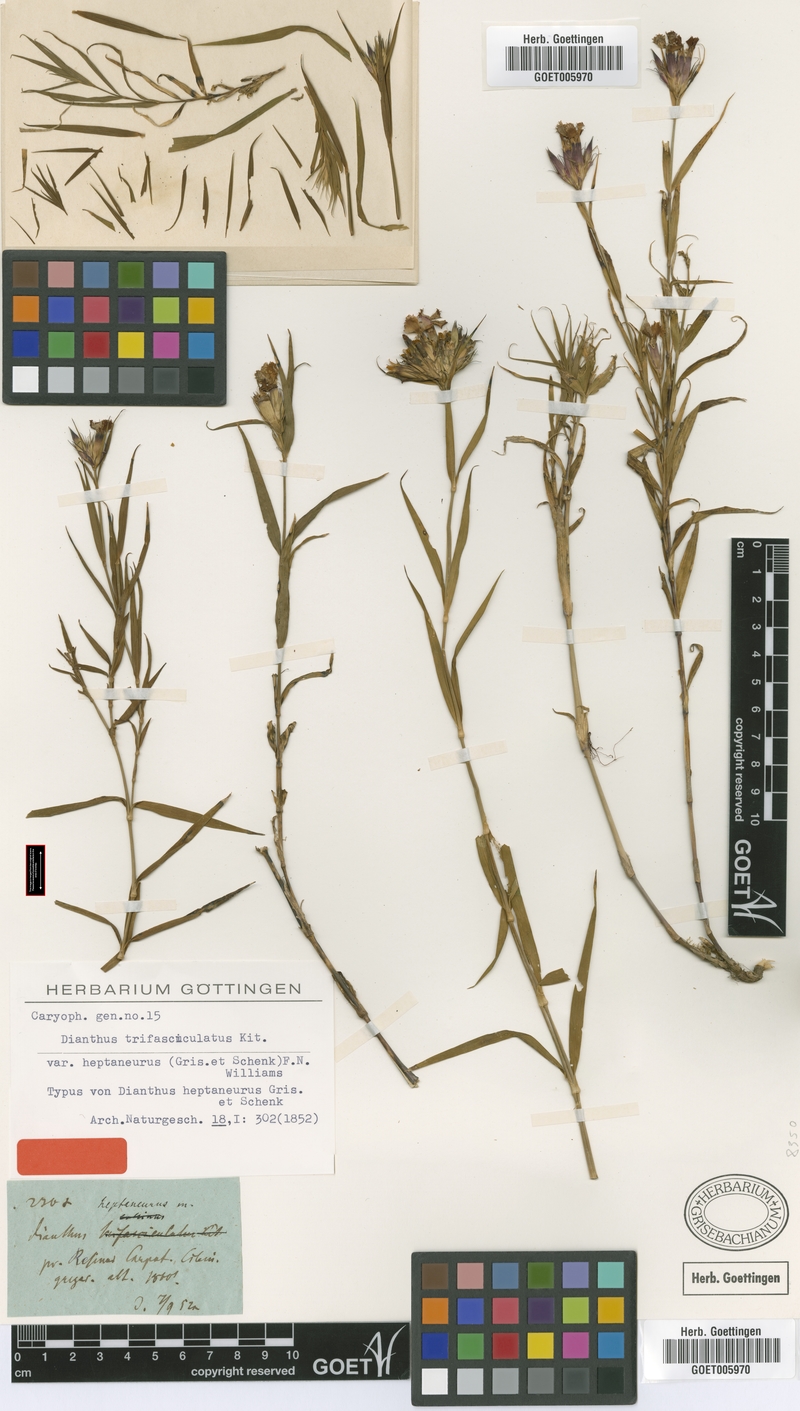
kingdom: Plantae
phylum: Tracheophyta
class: Magnoliopsida
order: Caryophyllales
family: Caryophyllaceae
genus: Dianthus
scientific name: Dianthus trifasciculatus
